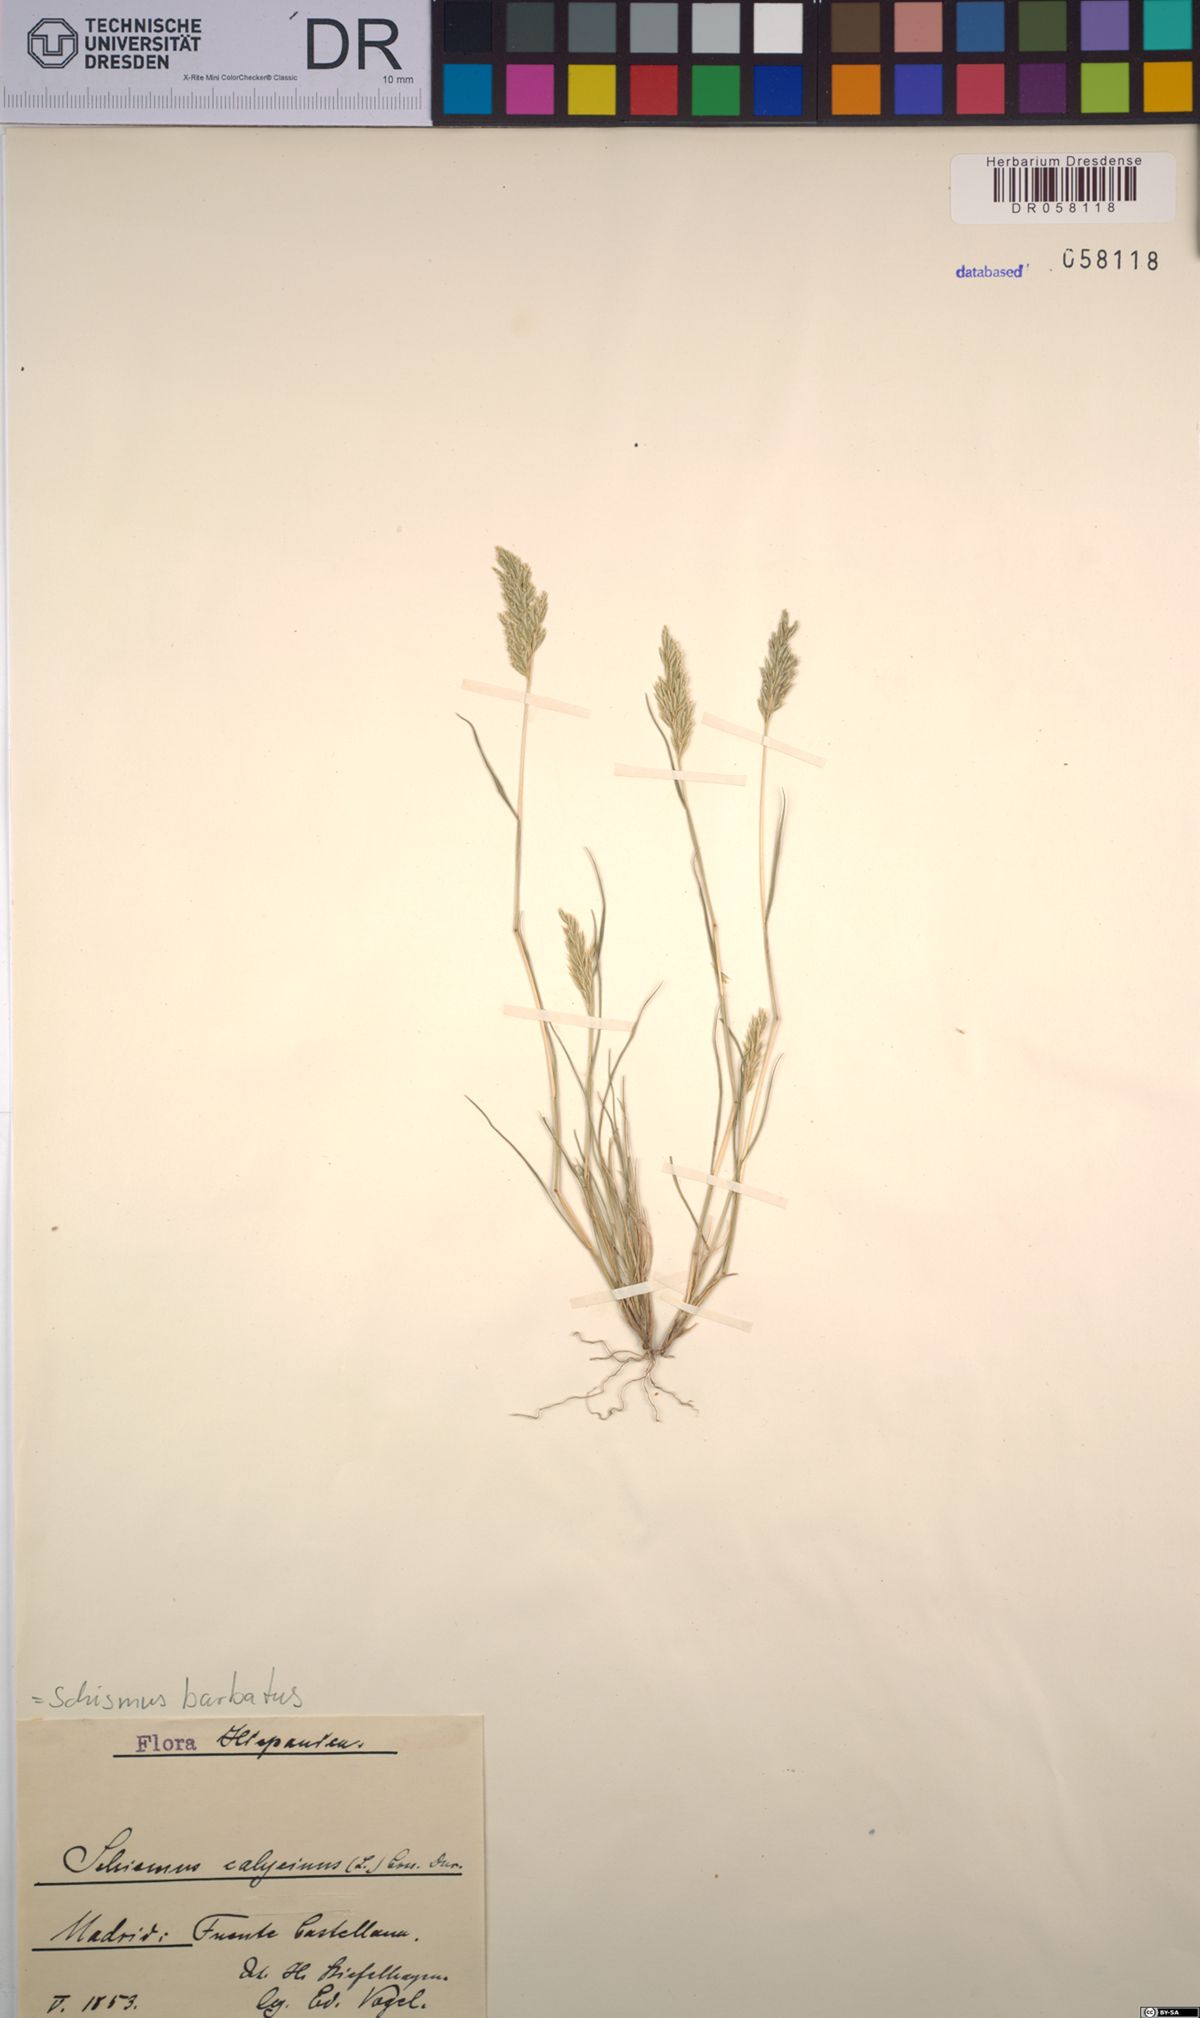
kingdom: Plantae
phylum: Tracheophyta
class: Liliopsida
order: Poales
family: Poaceae
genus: Schismus
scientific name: Schismus barbatus
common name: Kelch-grass
